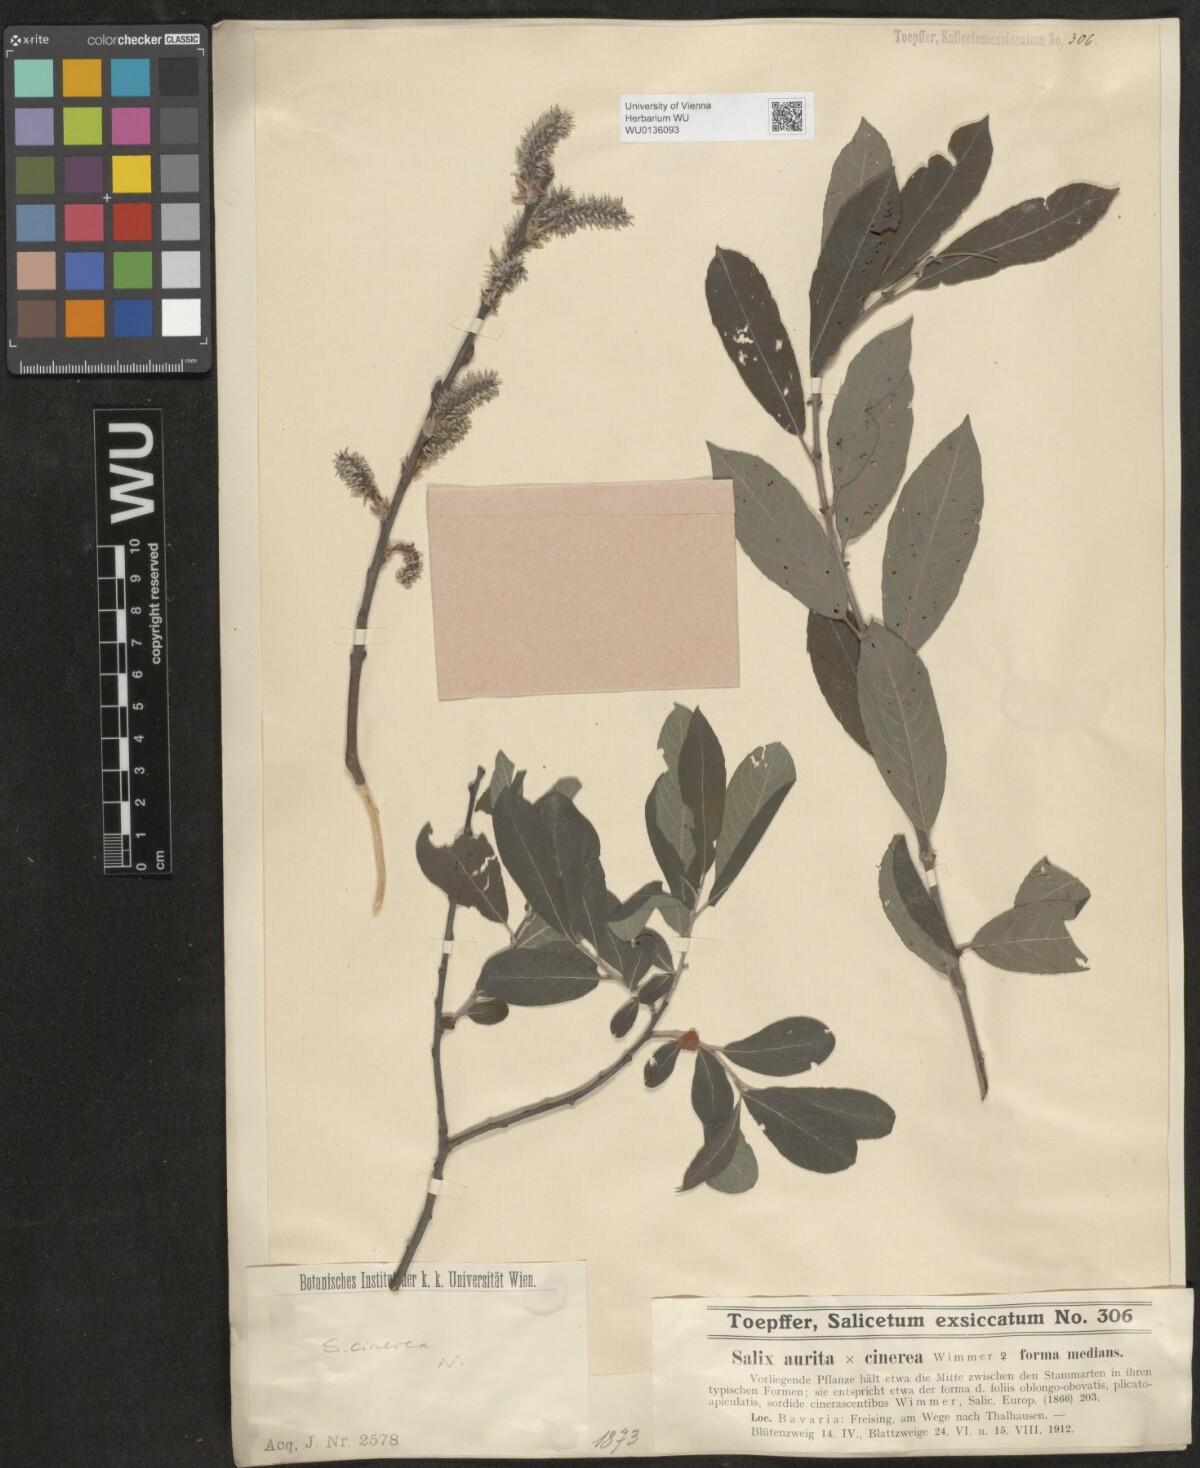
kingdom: Plantae
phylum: Tracheophyta
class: Magnoliopsida
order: Malpighiales
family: Salicaceae
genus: Salix
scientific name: Salix cinerea
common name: Common sallow
